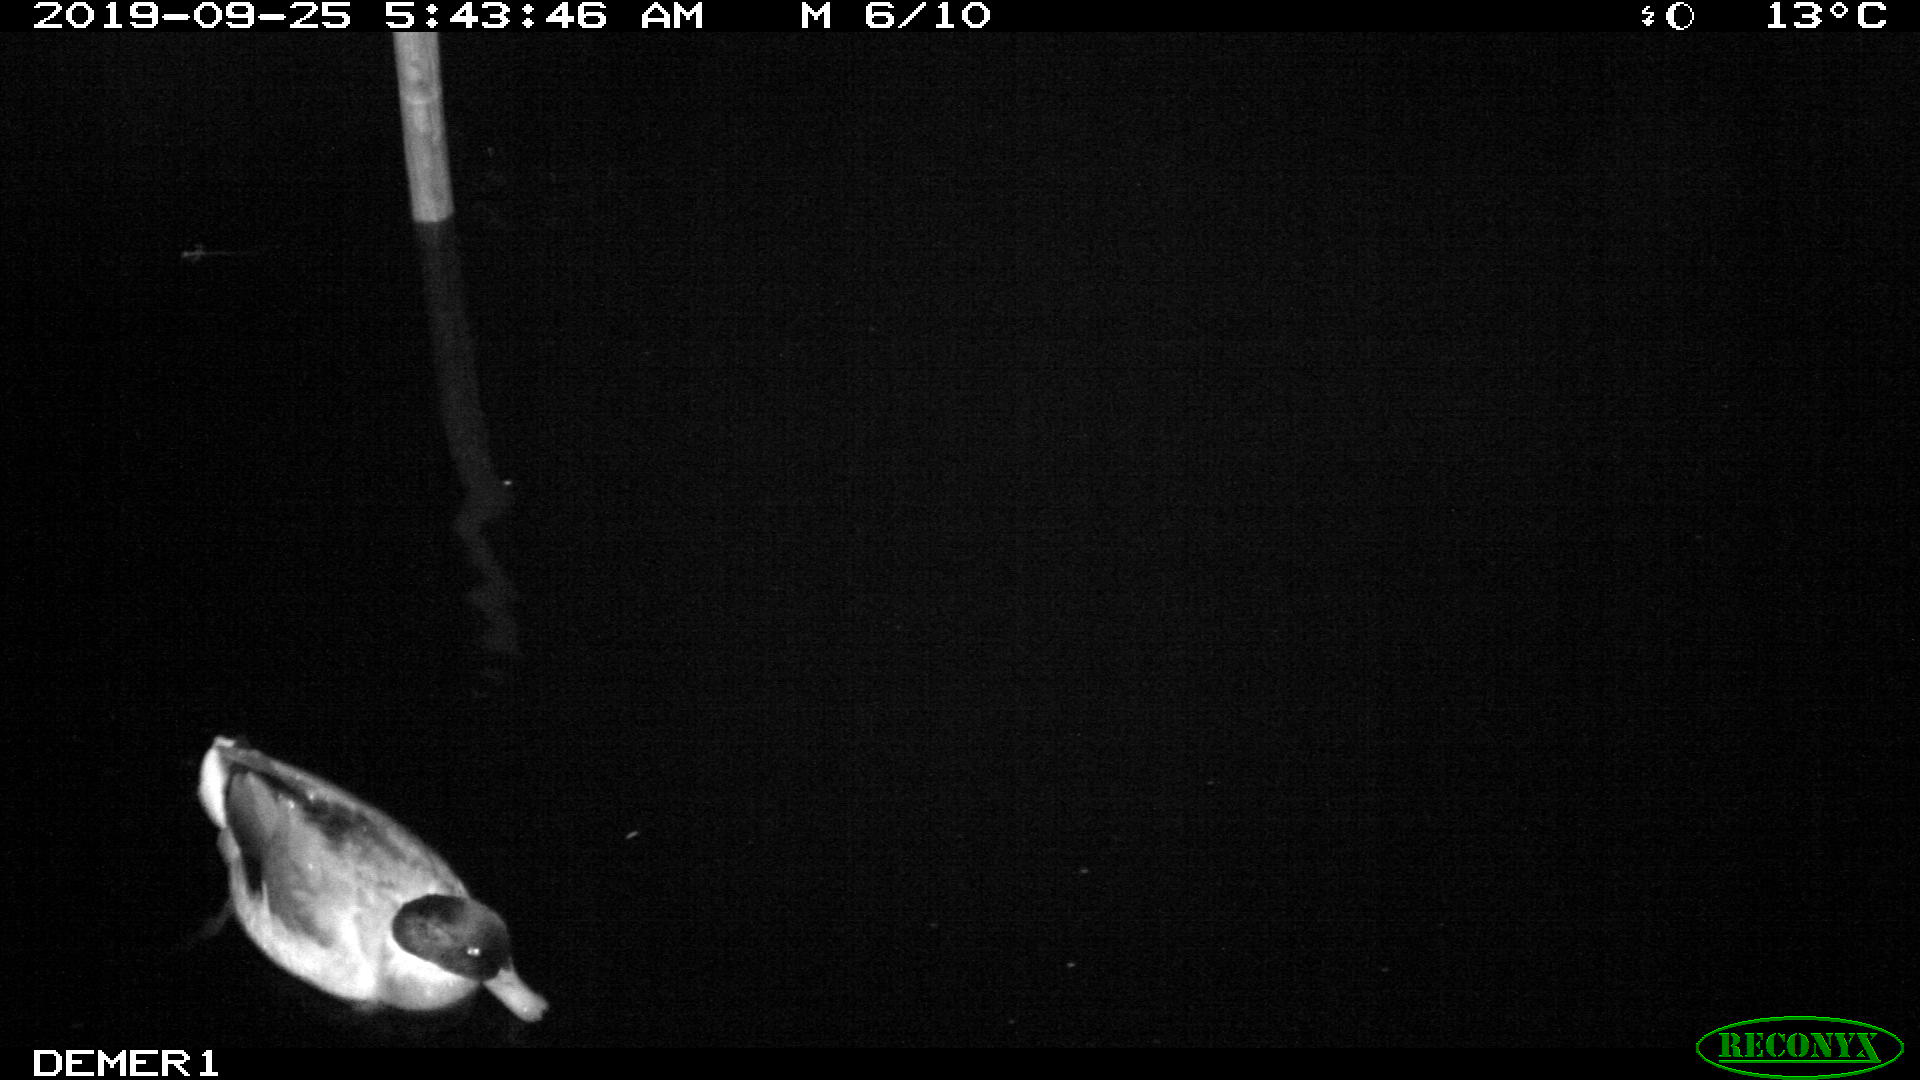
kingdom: Animalia
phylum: Chordata
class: Aves
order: Anseriformes
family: Anatidae
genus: Anas
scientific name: Anas platyrhynchos
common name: Mallard
